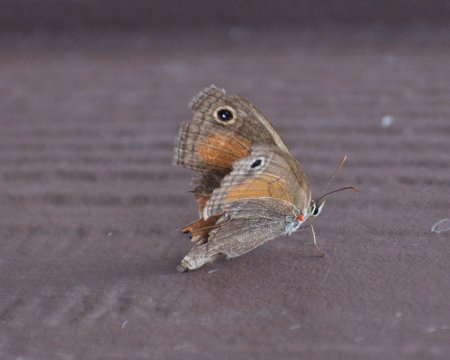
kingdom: Animalia
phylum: Arthropoda
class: Insecta
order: Lepidoptera
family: Nymphalidae
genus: Euptychia
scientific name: Euptychia rubricata
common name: Red Satyr
